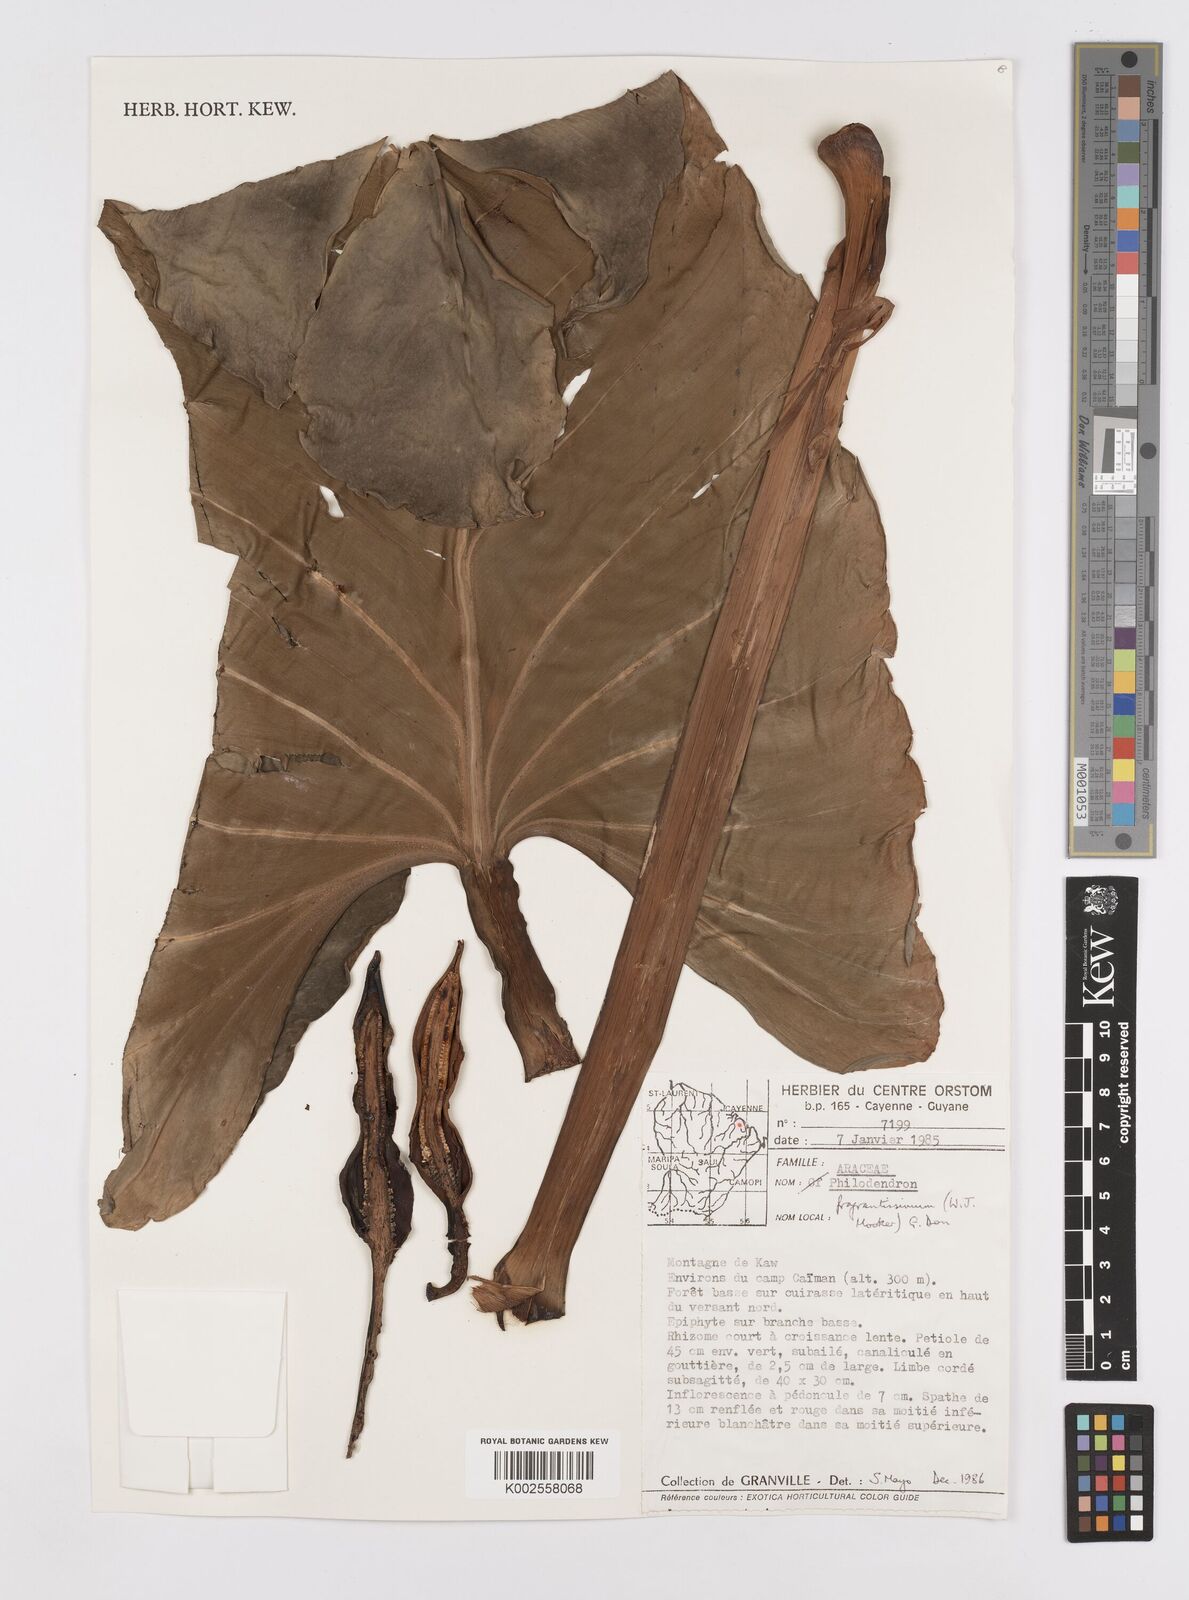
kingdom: Plantae
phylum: Tracheophyta
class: Liliopsida
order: Alismatales
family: Araceae
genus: Philodendron
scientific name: Philodendron fragrantissimum
